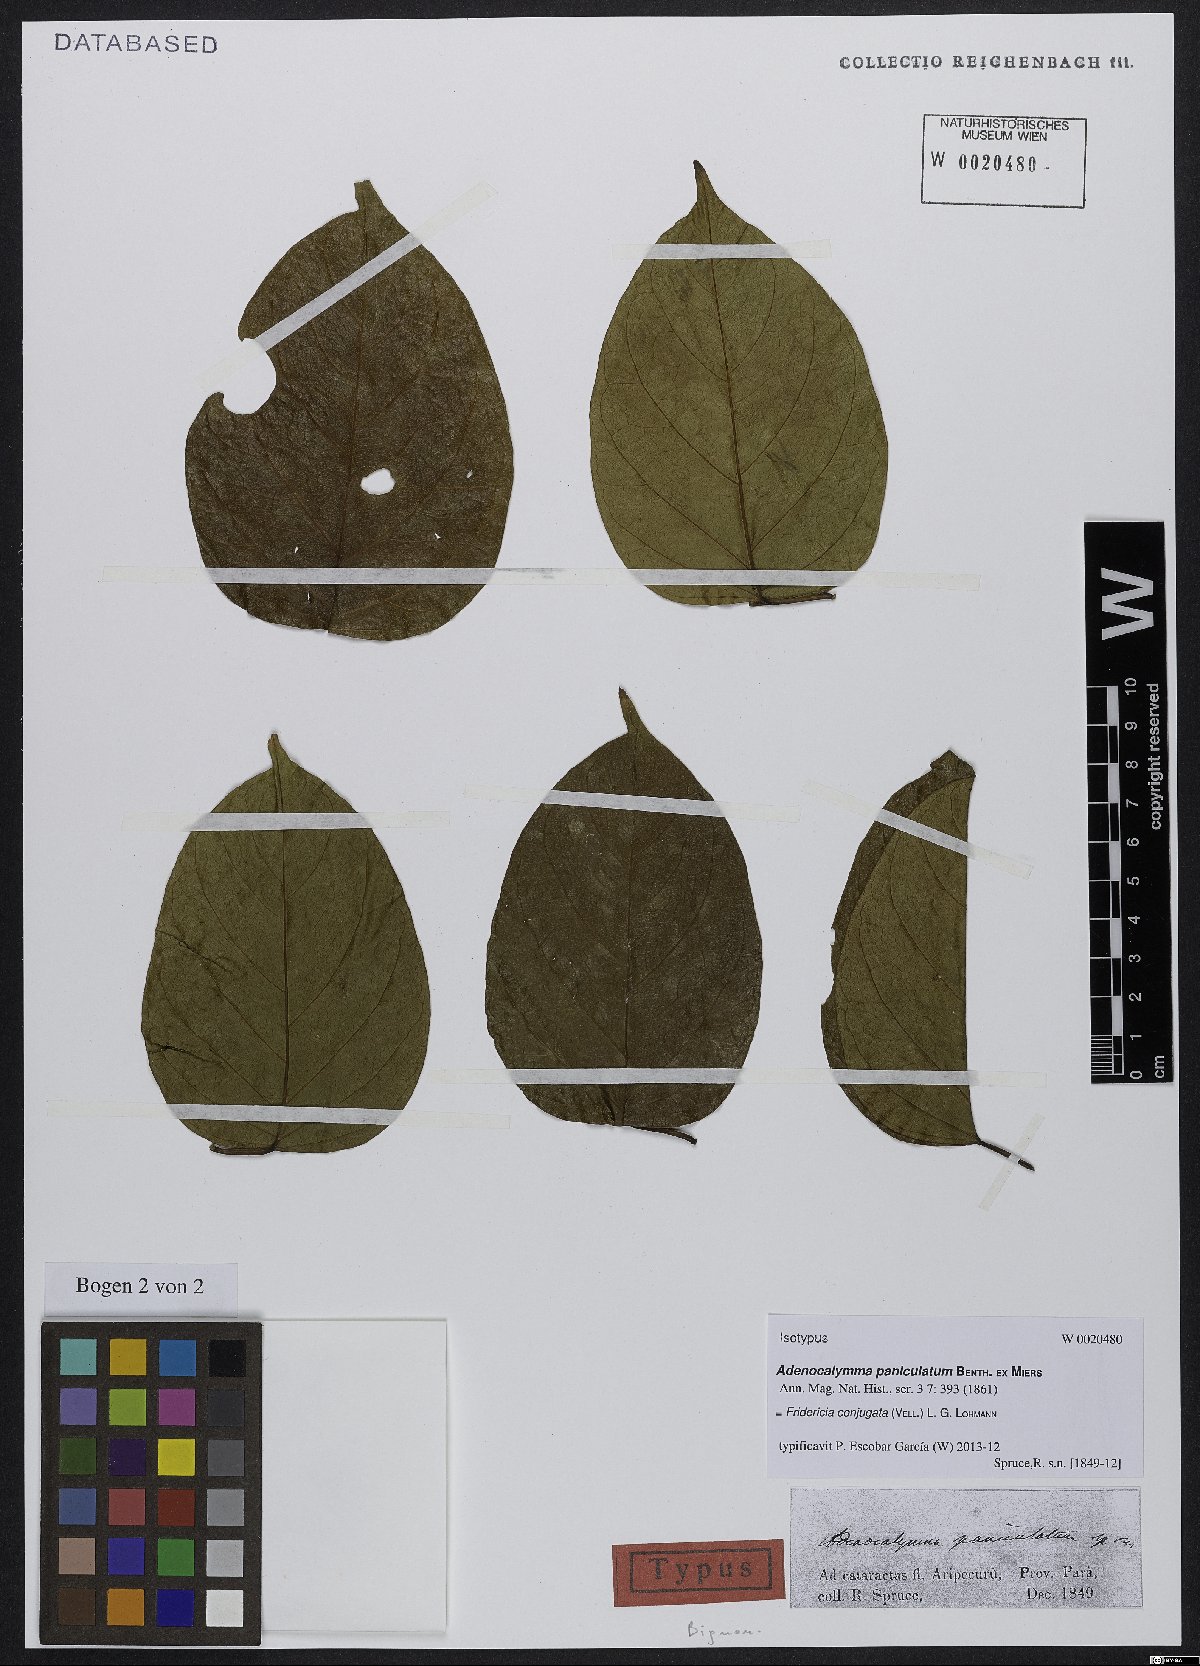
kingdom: Plantae
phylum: Tracheophyta
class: Magnoliopsida
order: Lamiales
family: Bignoniaceae
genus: Fridericia
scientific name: Fridericia conjugata
